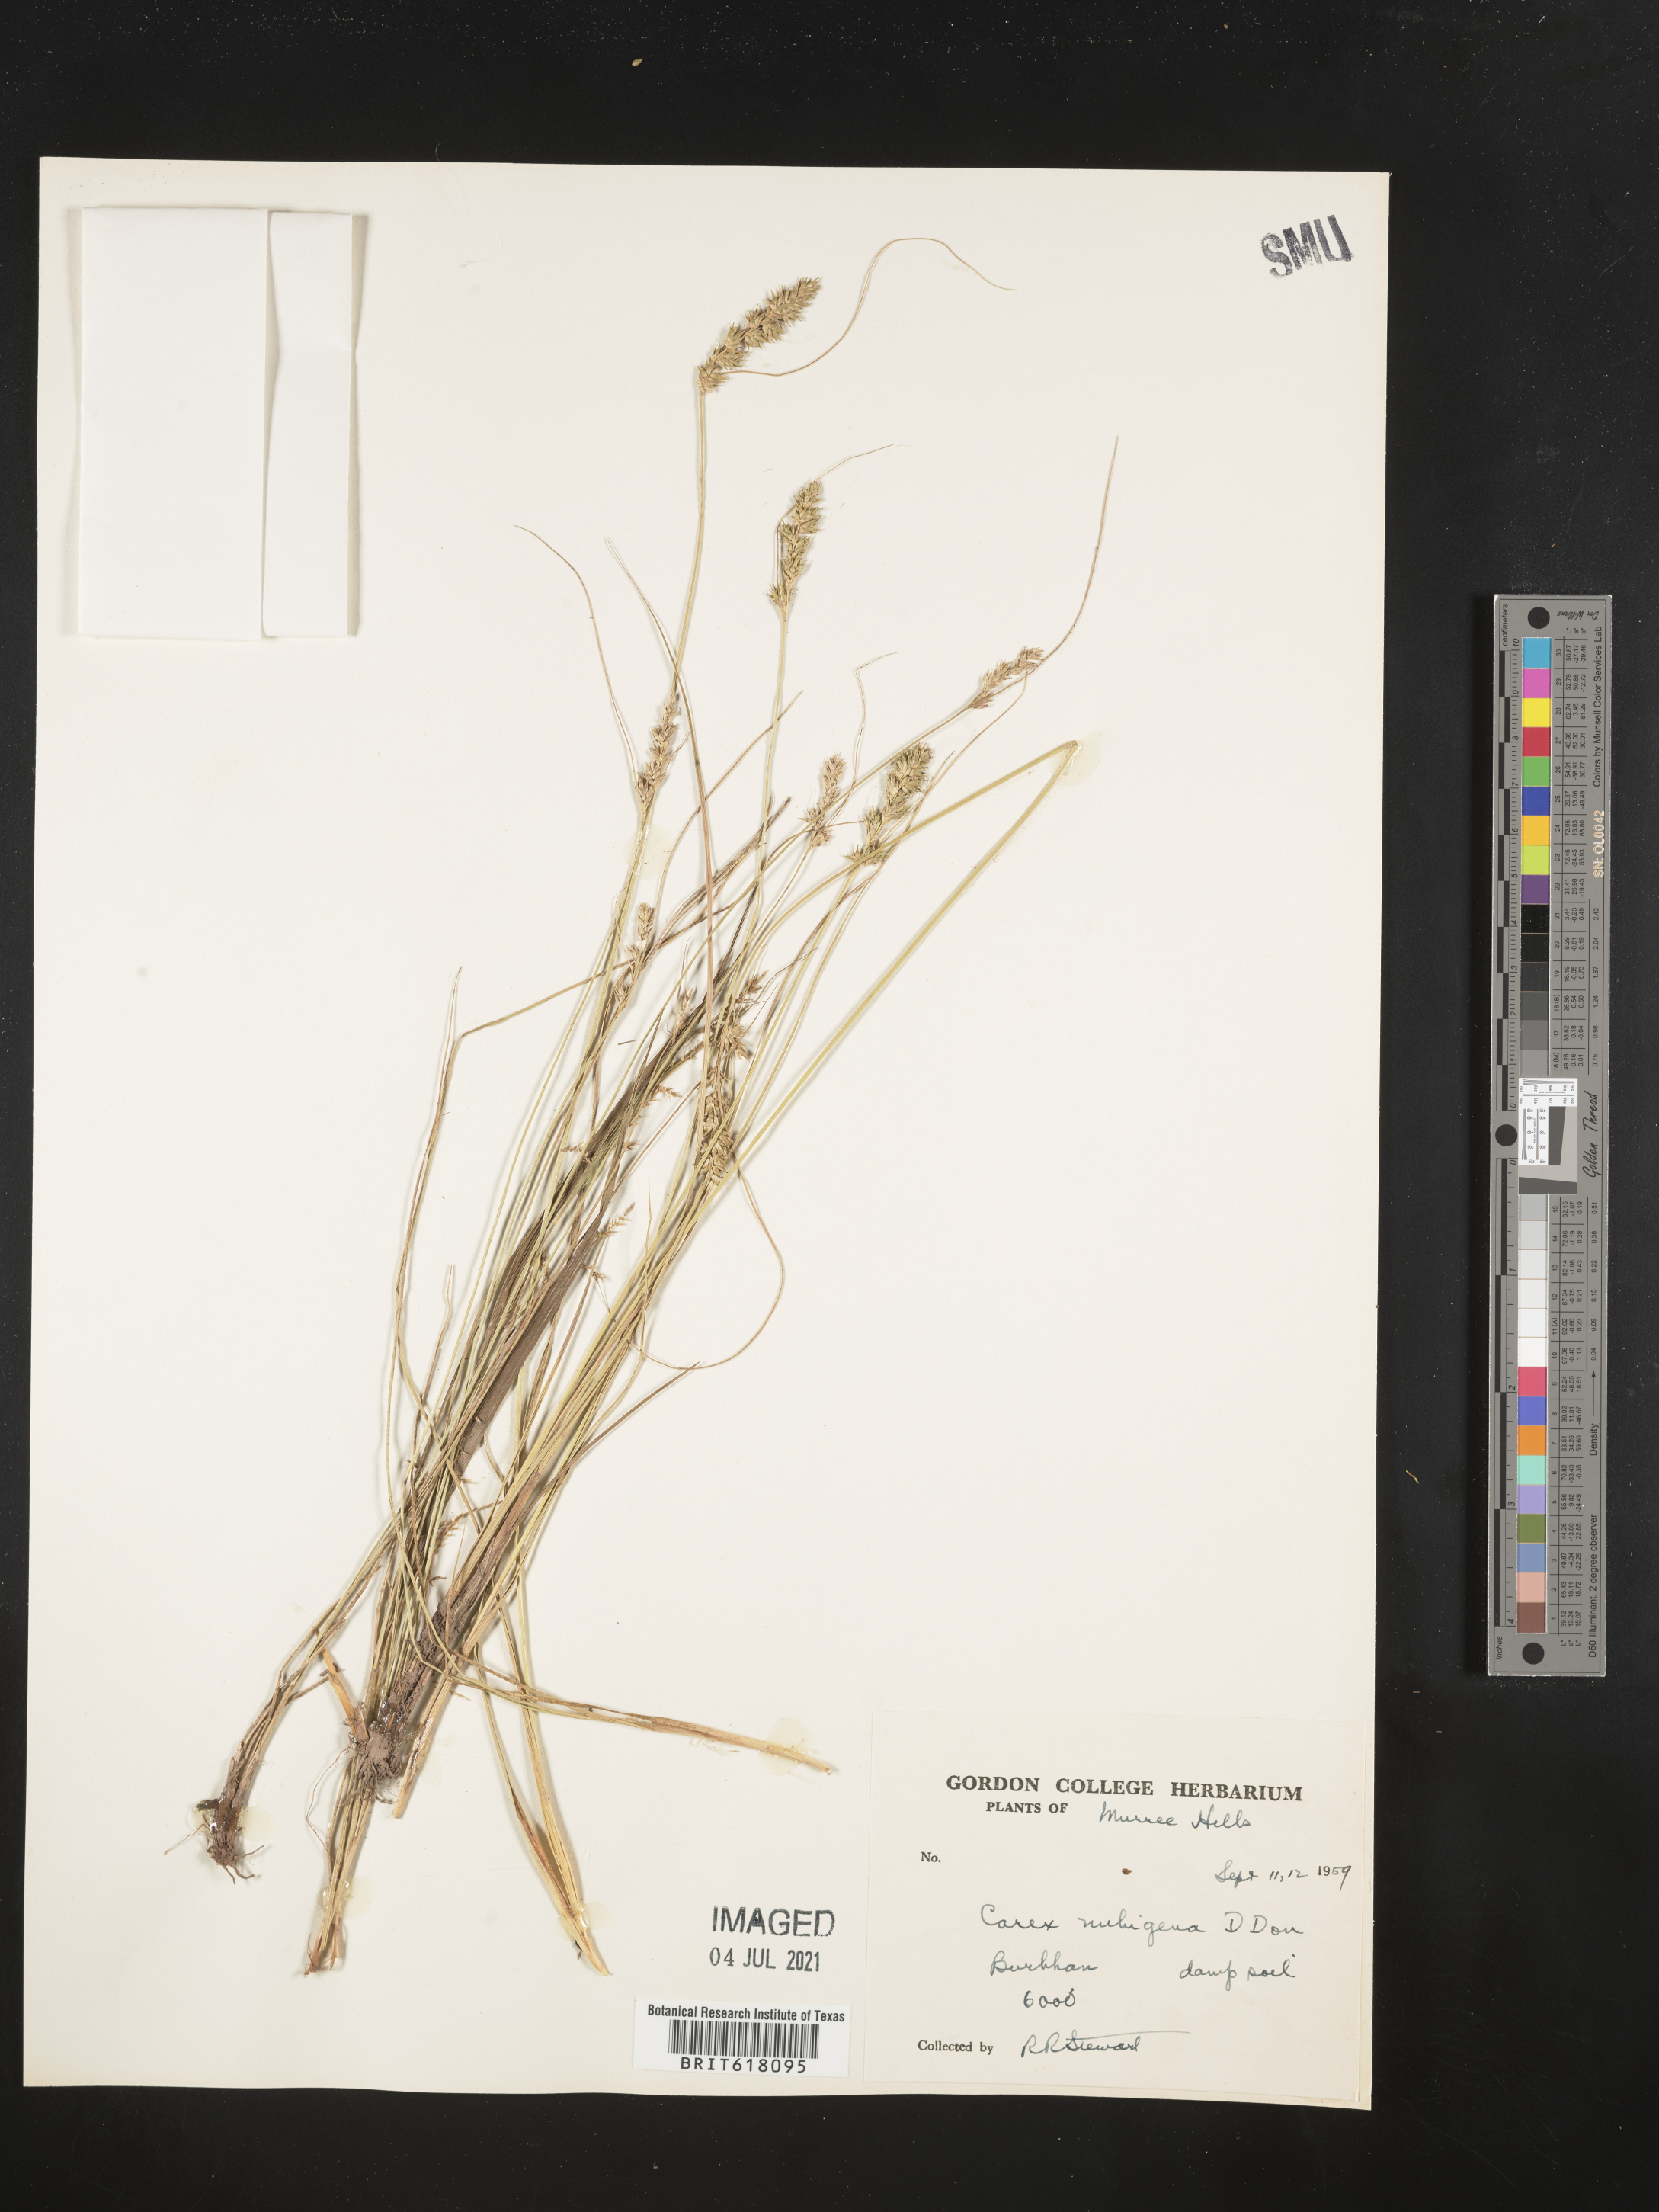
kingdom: Plantae
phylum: Tracheophyta
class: Liliopsida
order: Poales
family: Cyperaceae
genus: Carex
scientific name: Carex nubigena
